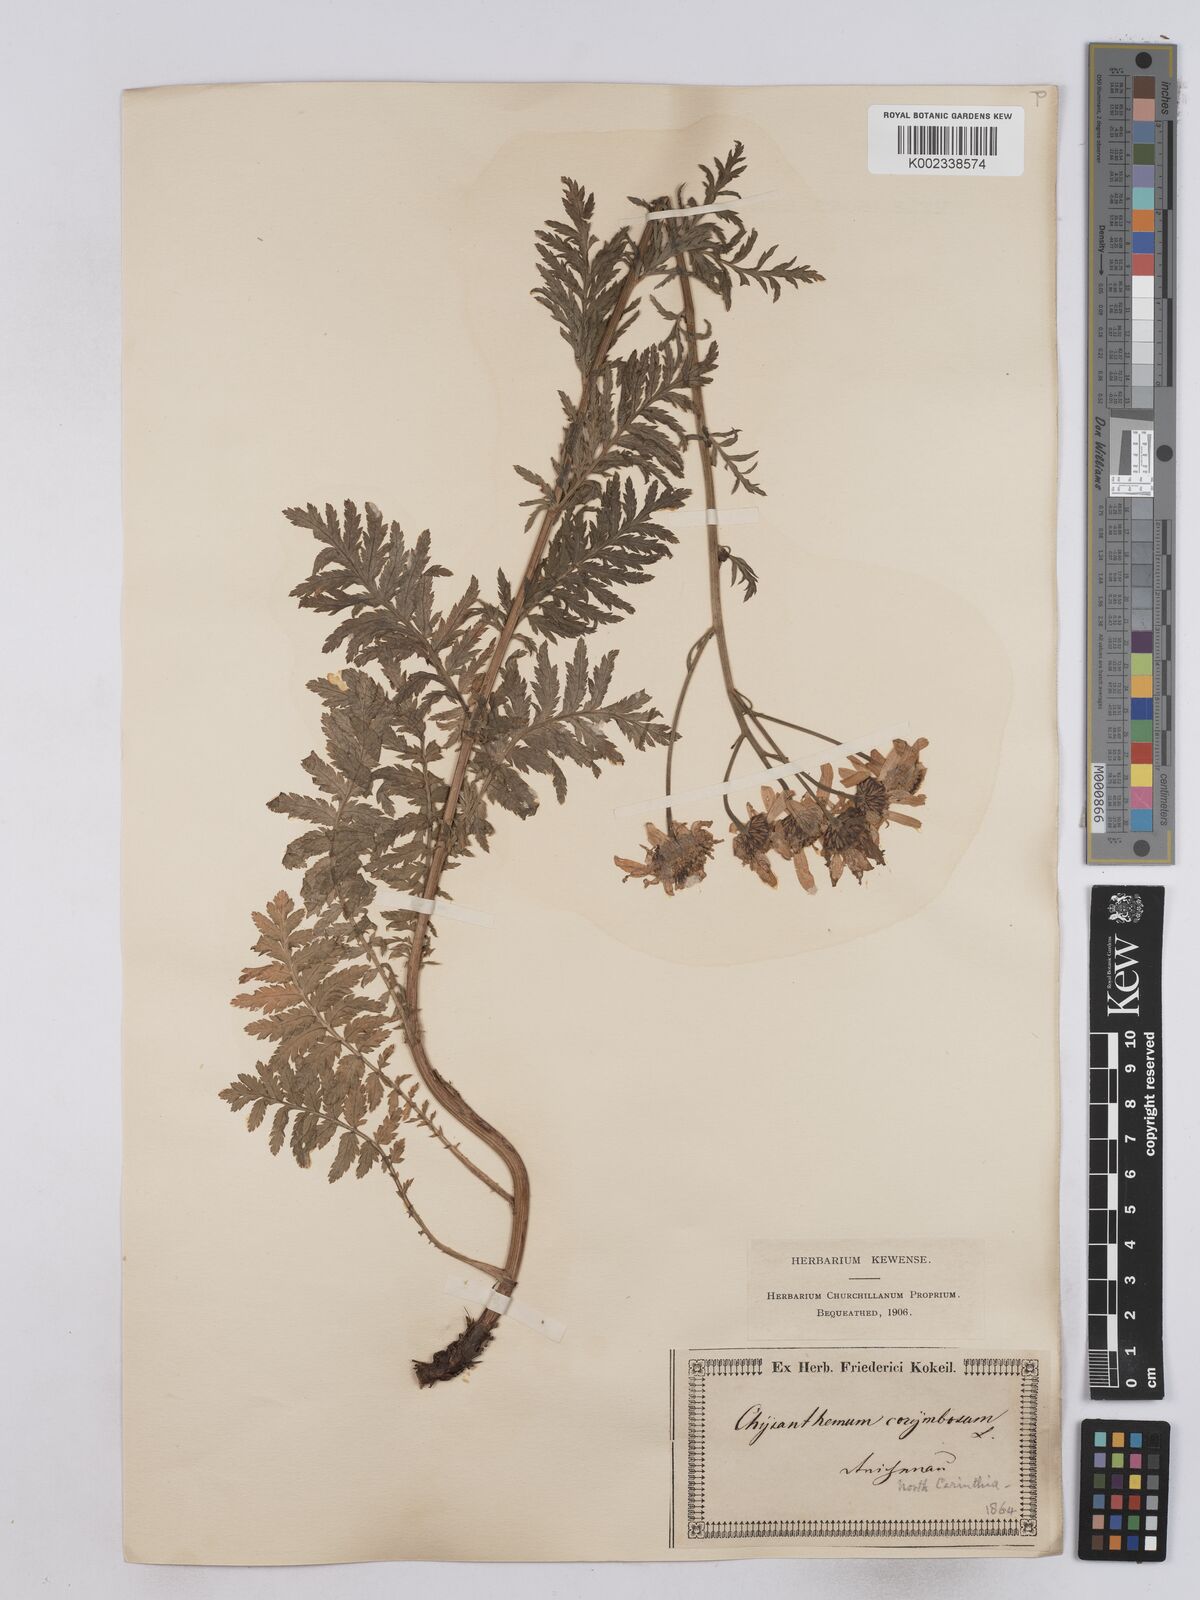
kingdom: Plantae
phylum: Tracheophyta
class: Magnoliopsida
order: Asterales
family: Asteraceae
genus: Tanacetum
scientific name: Tanacetum corymbosum
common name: Scentless feverfew
